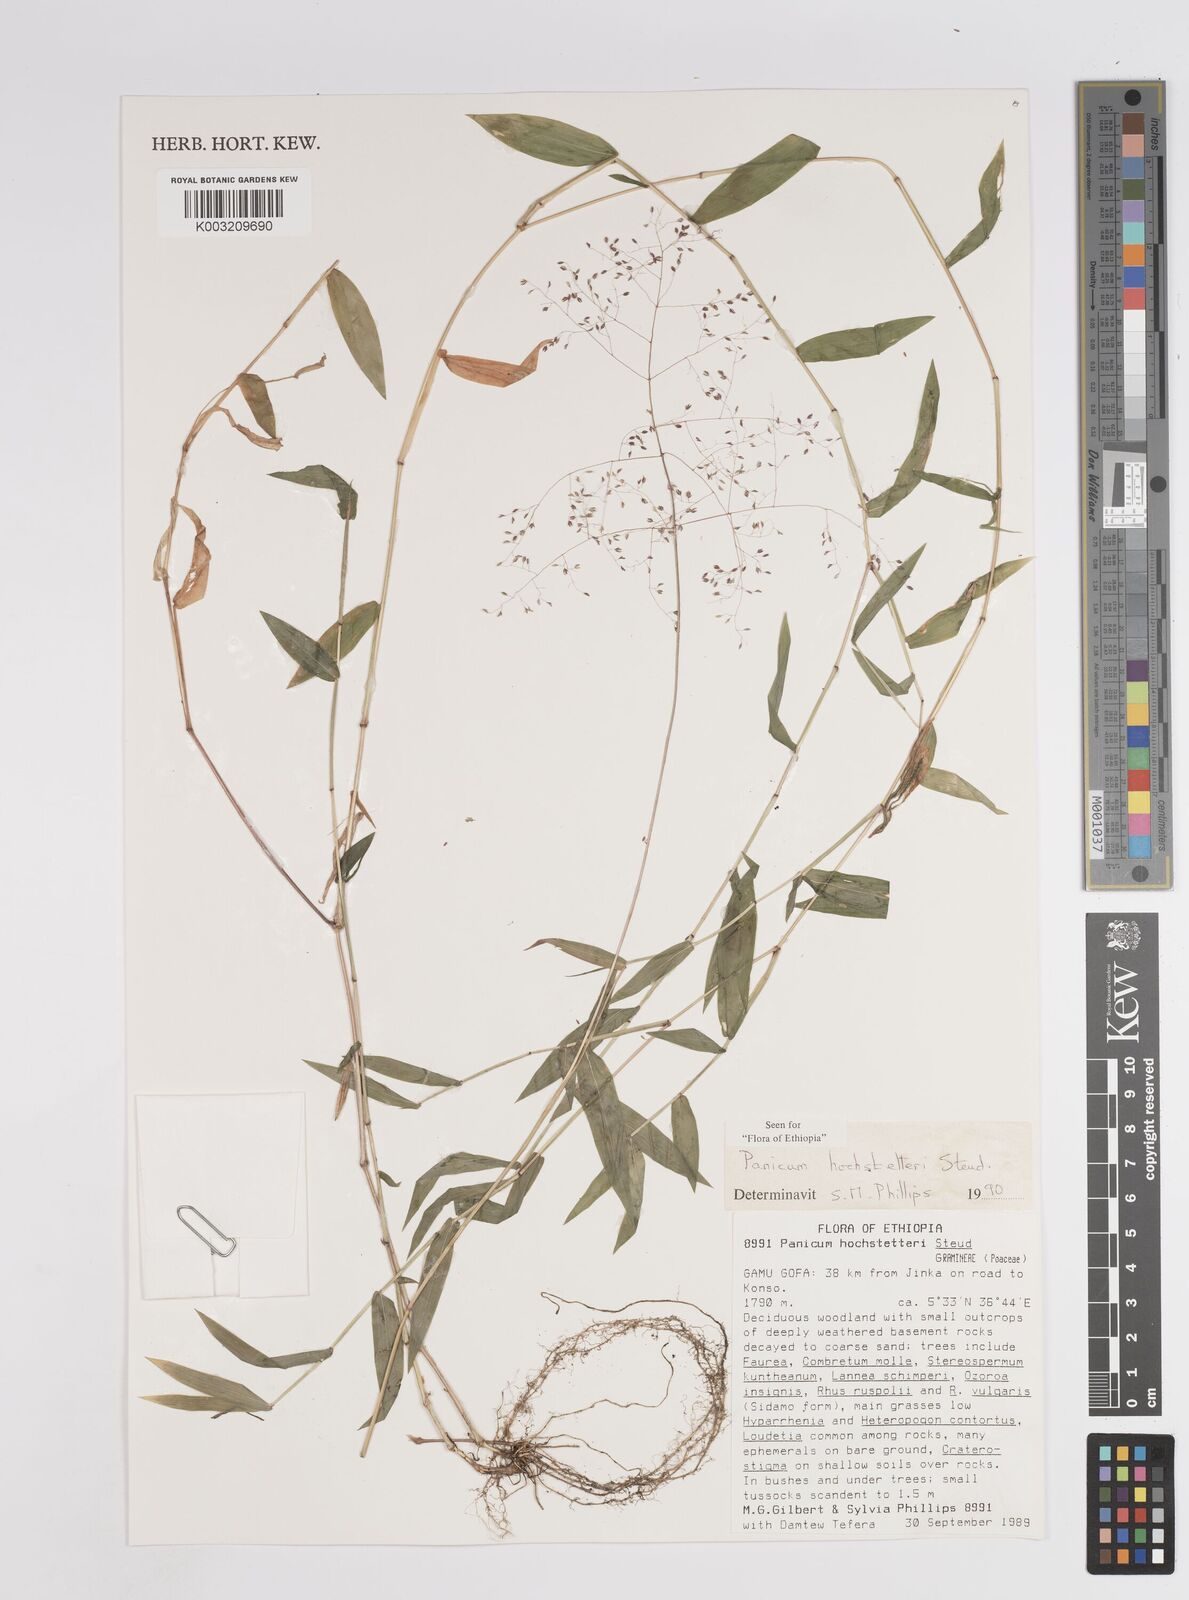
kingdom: Plantae
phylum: Tracheophyta
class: Liliopsida
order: Poales
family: Poaceae
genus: Panicum
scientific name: Panicum hochstetteri
